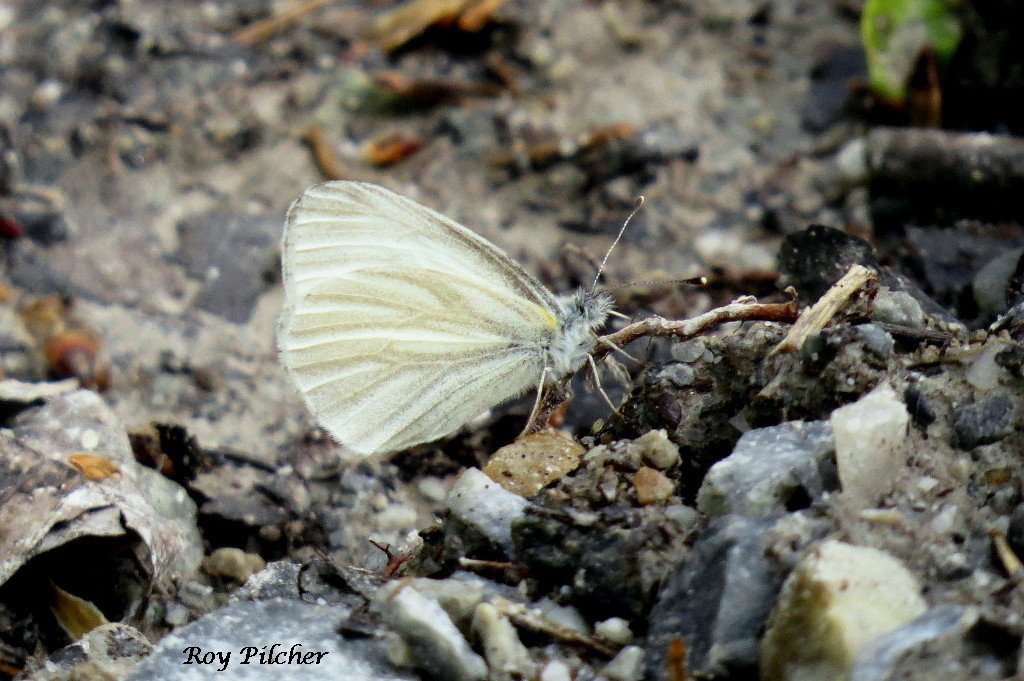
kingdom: Animalia
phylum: Arthropoda
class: Insecta
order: Lepidoptera
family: Pieridae
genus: Pieris
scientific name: Pieris virginiensis
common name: West Virginia White
